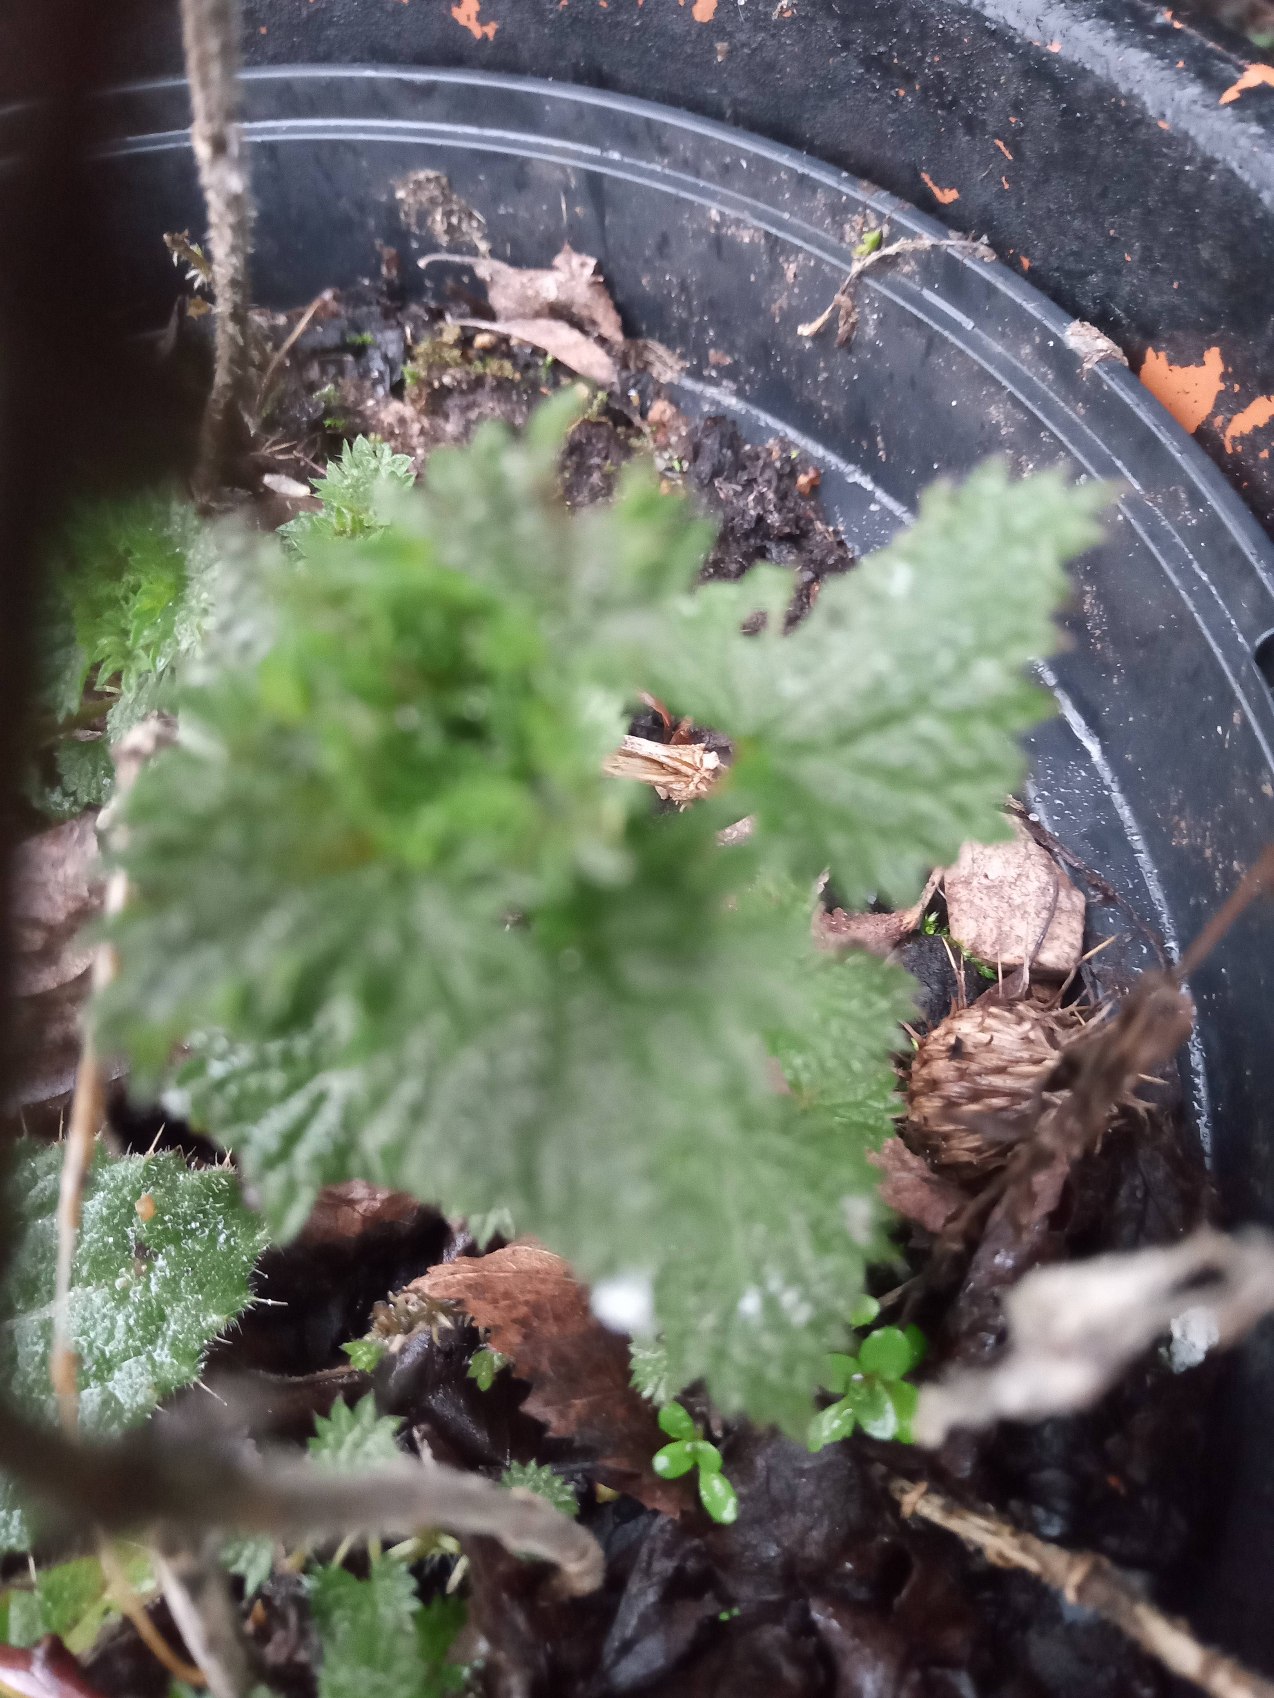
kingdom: Plantae
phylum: Tracheophyta
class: Magnoliopsida
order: Rosales
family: Urticaceae
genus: Urtica
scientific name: Urtica dioica
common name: Stor nælde
